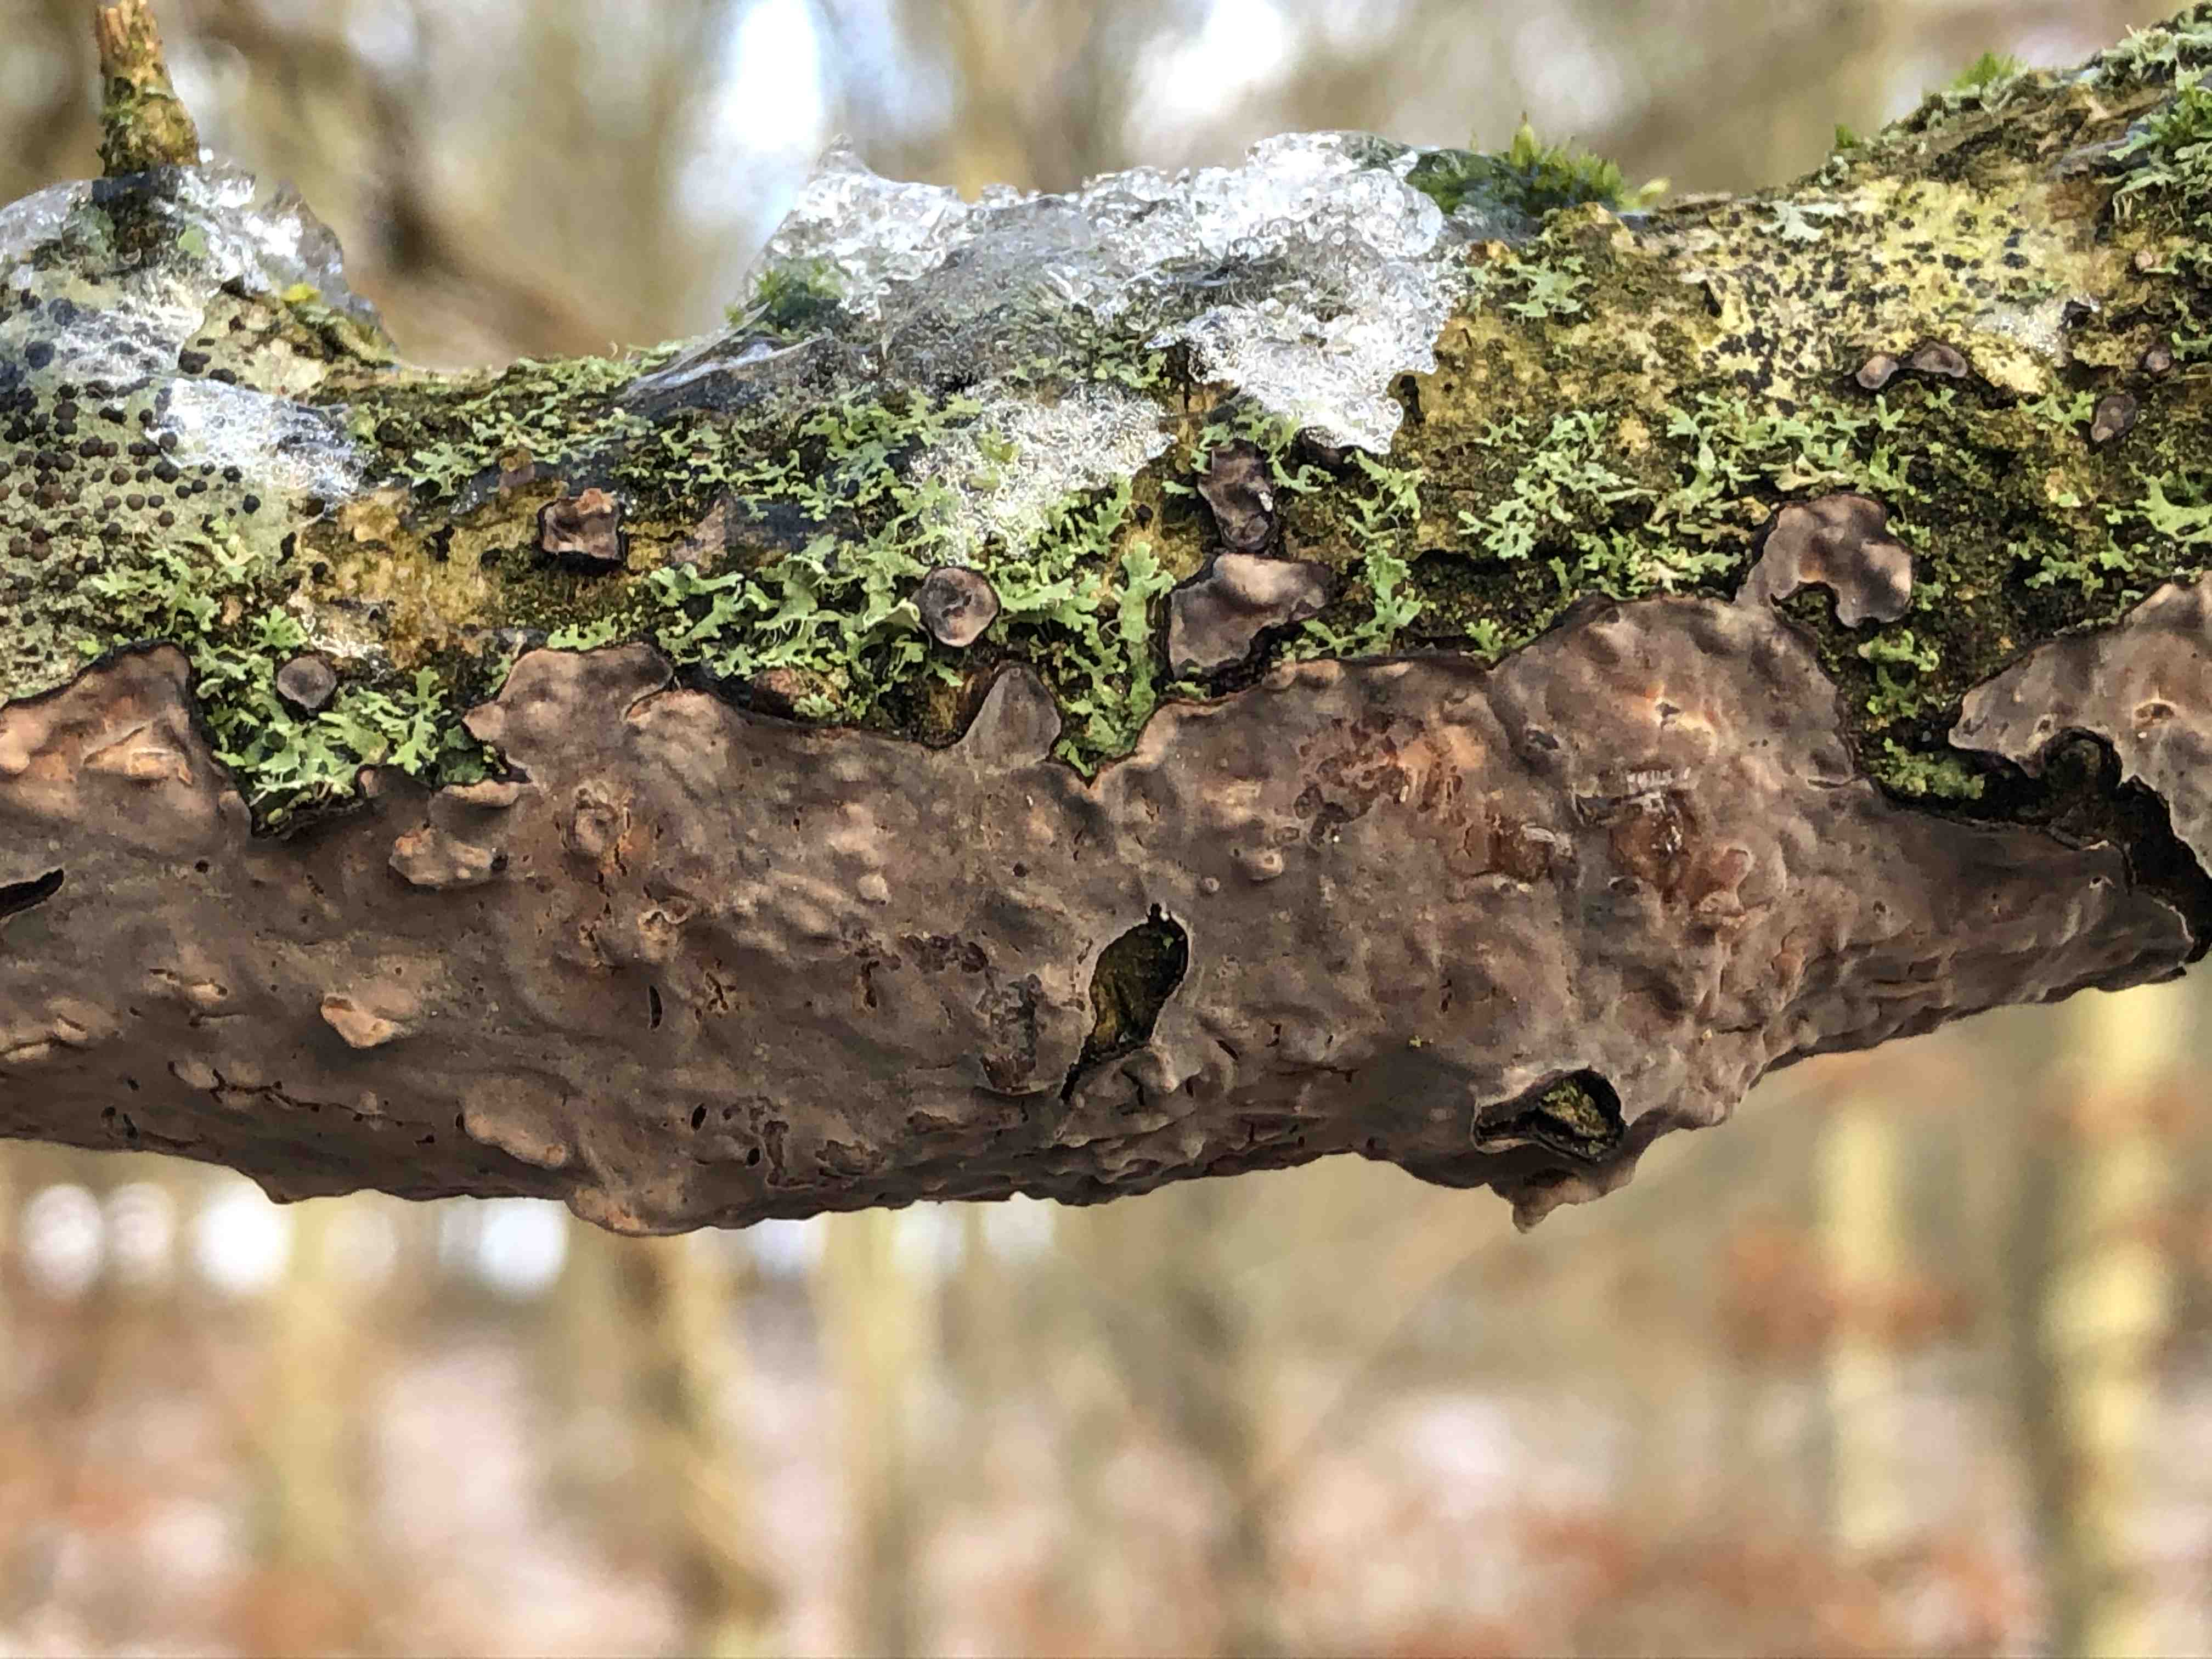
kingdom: Fungi
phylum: Basidiomycota
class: Agaricomycetes
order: Russulales
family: Peniophoraceae
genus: Peniophora
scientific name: Peniophora quercina
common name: ege-voksskind
